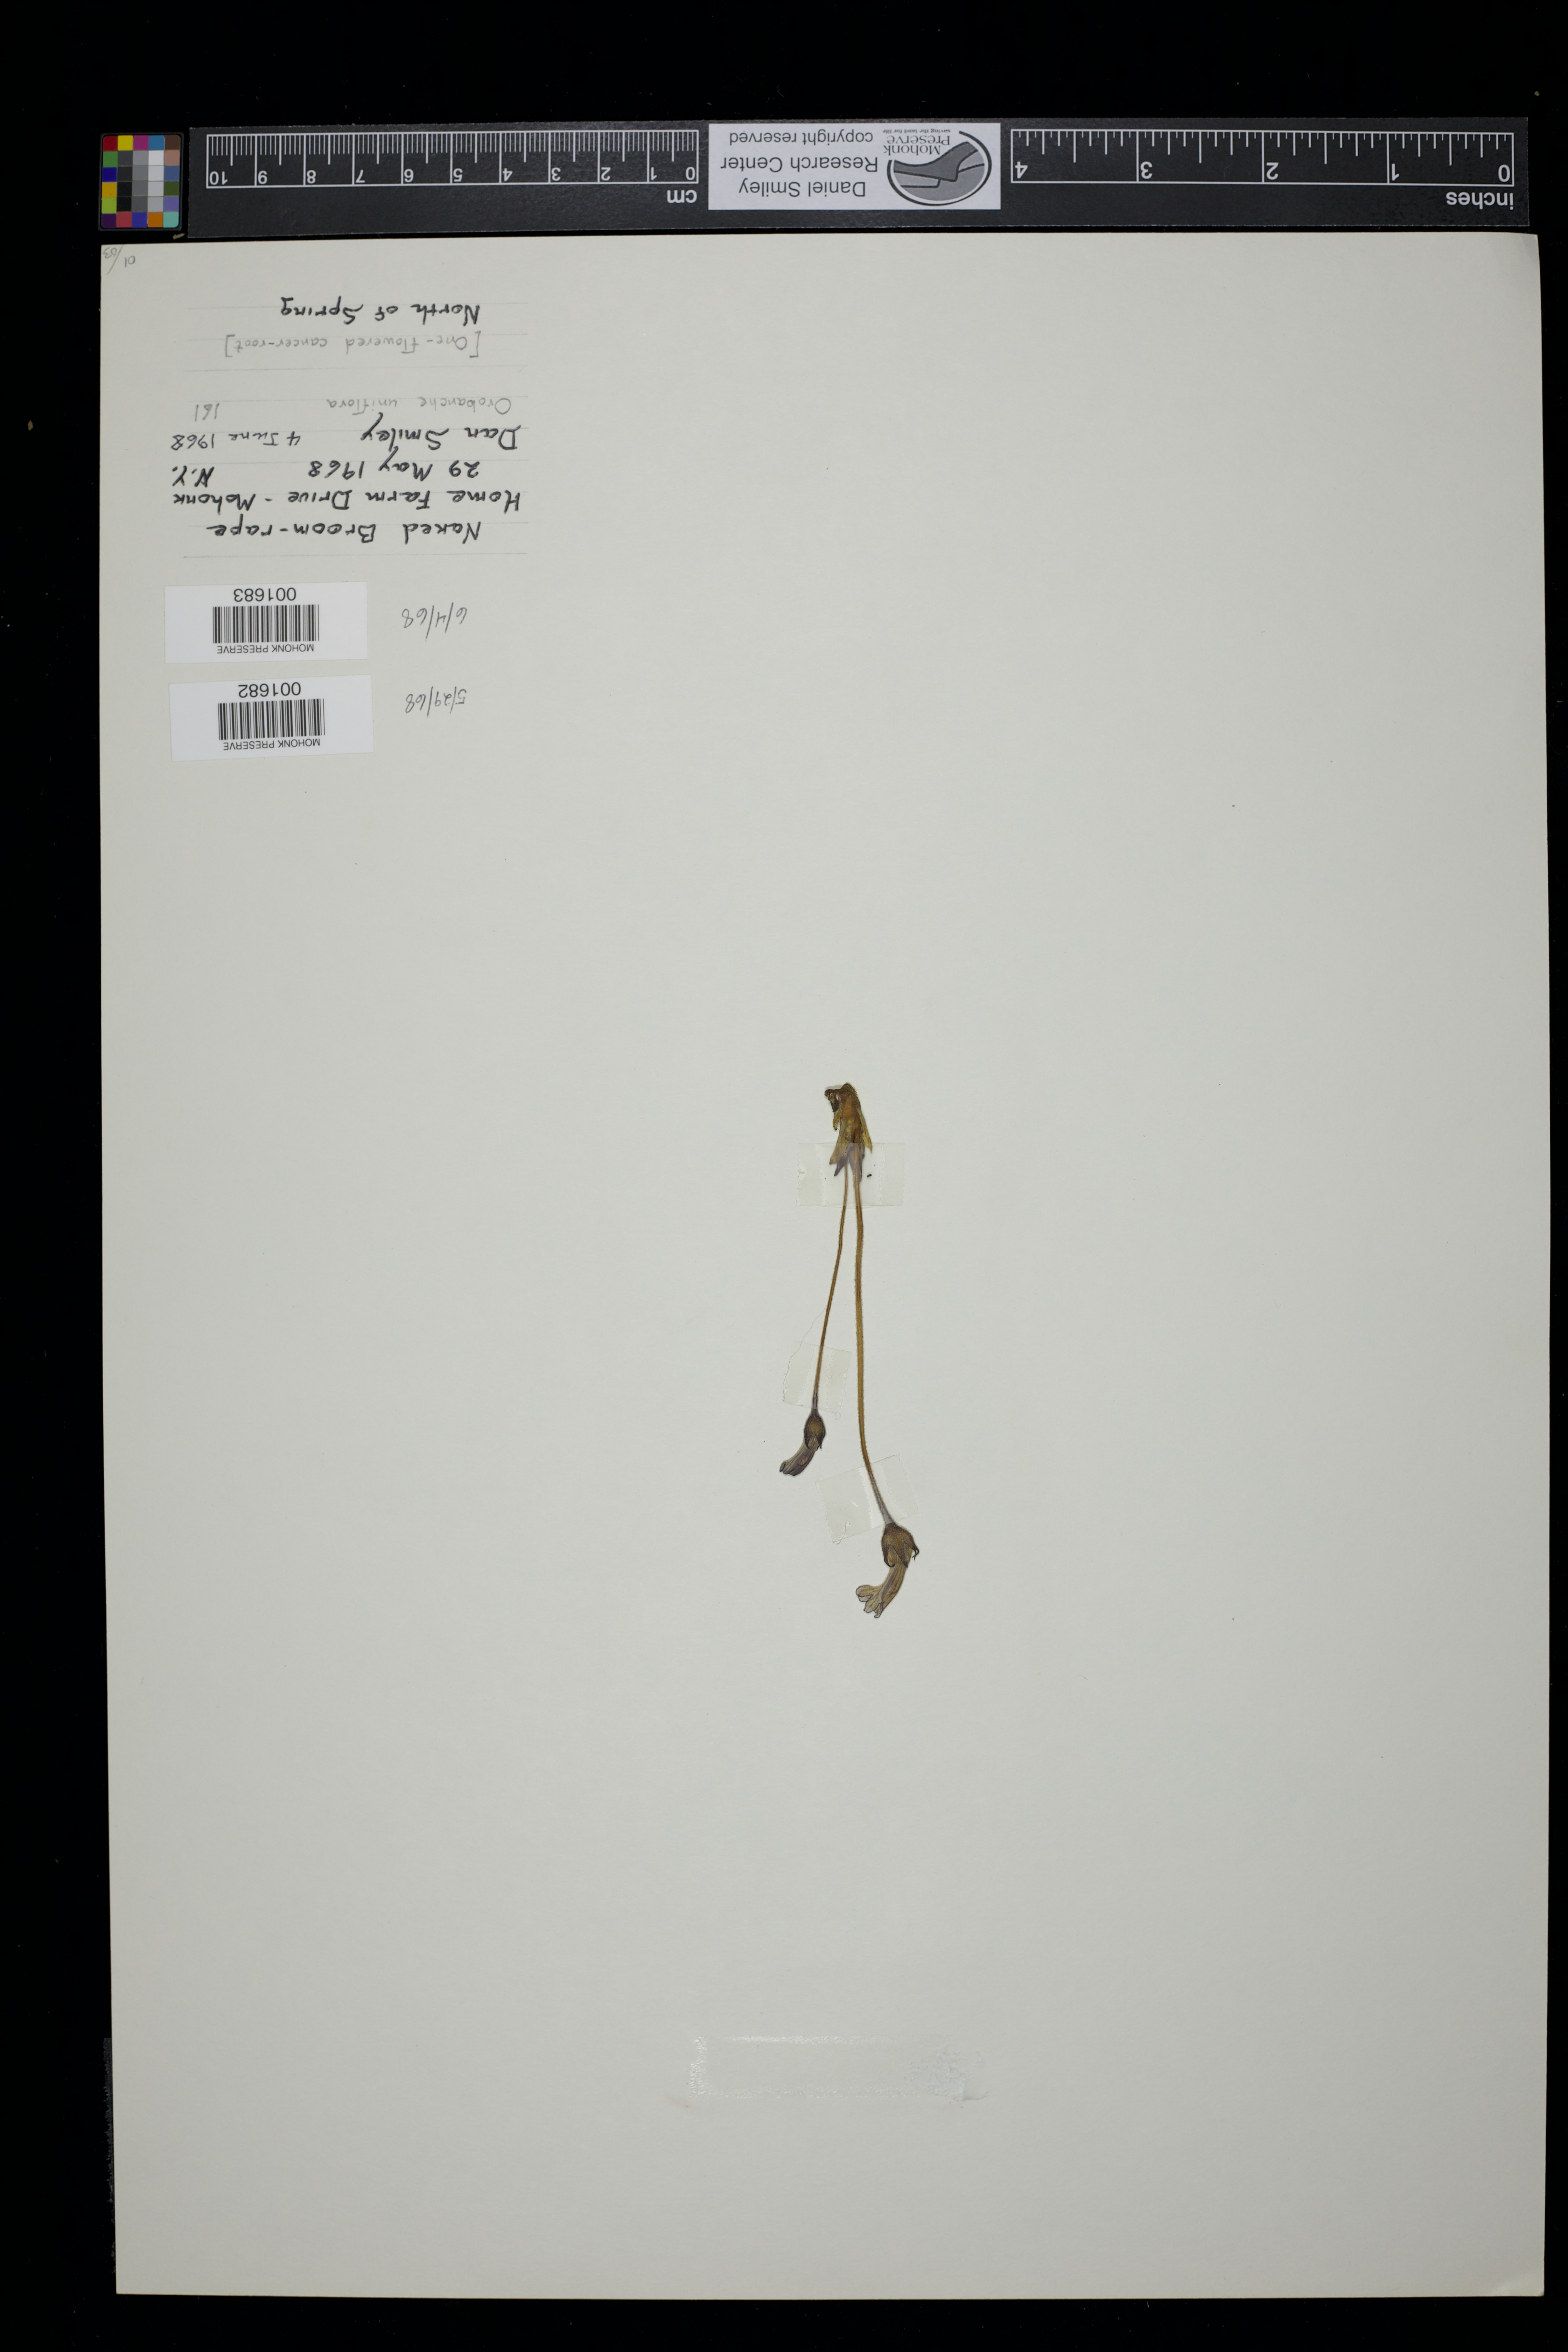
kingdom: Plantae
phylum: Tracheophyta
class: Magnoliopsida
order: Lamiales
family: Orobanchaceae
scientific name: Orobanchaceae
